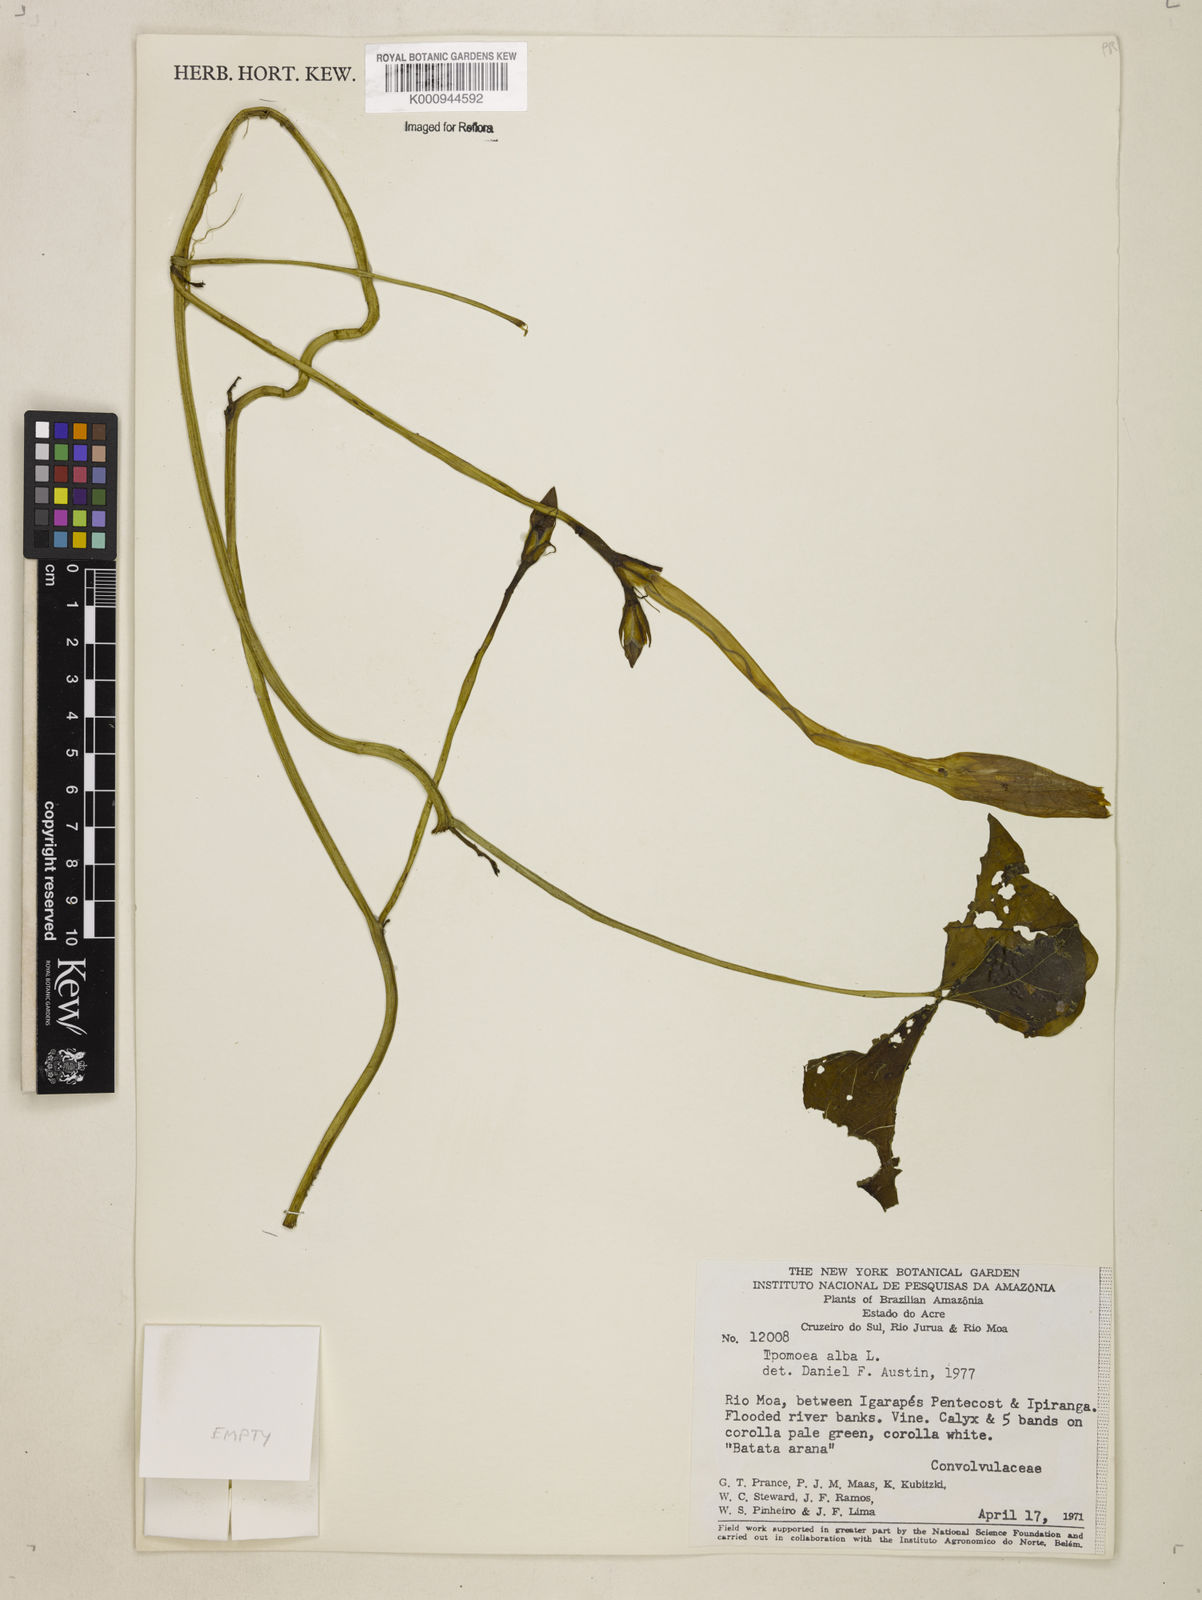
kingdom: Plantae
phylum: Tracheophyta
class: Magnoliopsida
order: Solanales
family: Convolvulaceae
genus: Ipomoea
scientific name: Ipomoea alba
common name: Moonflower
